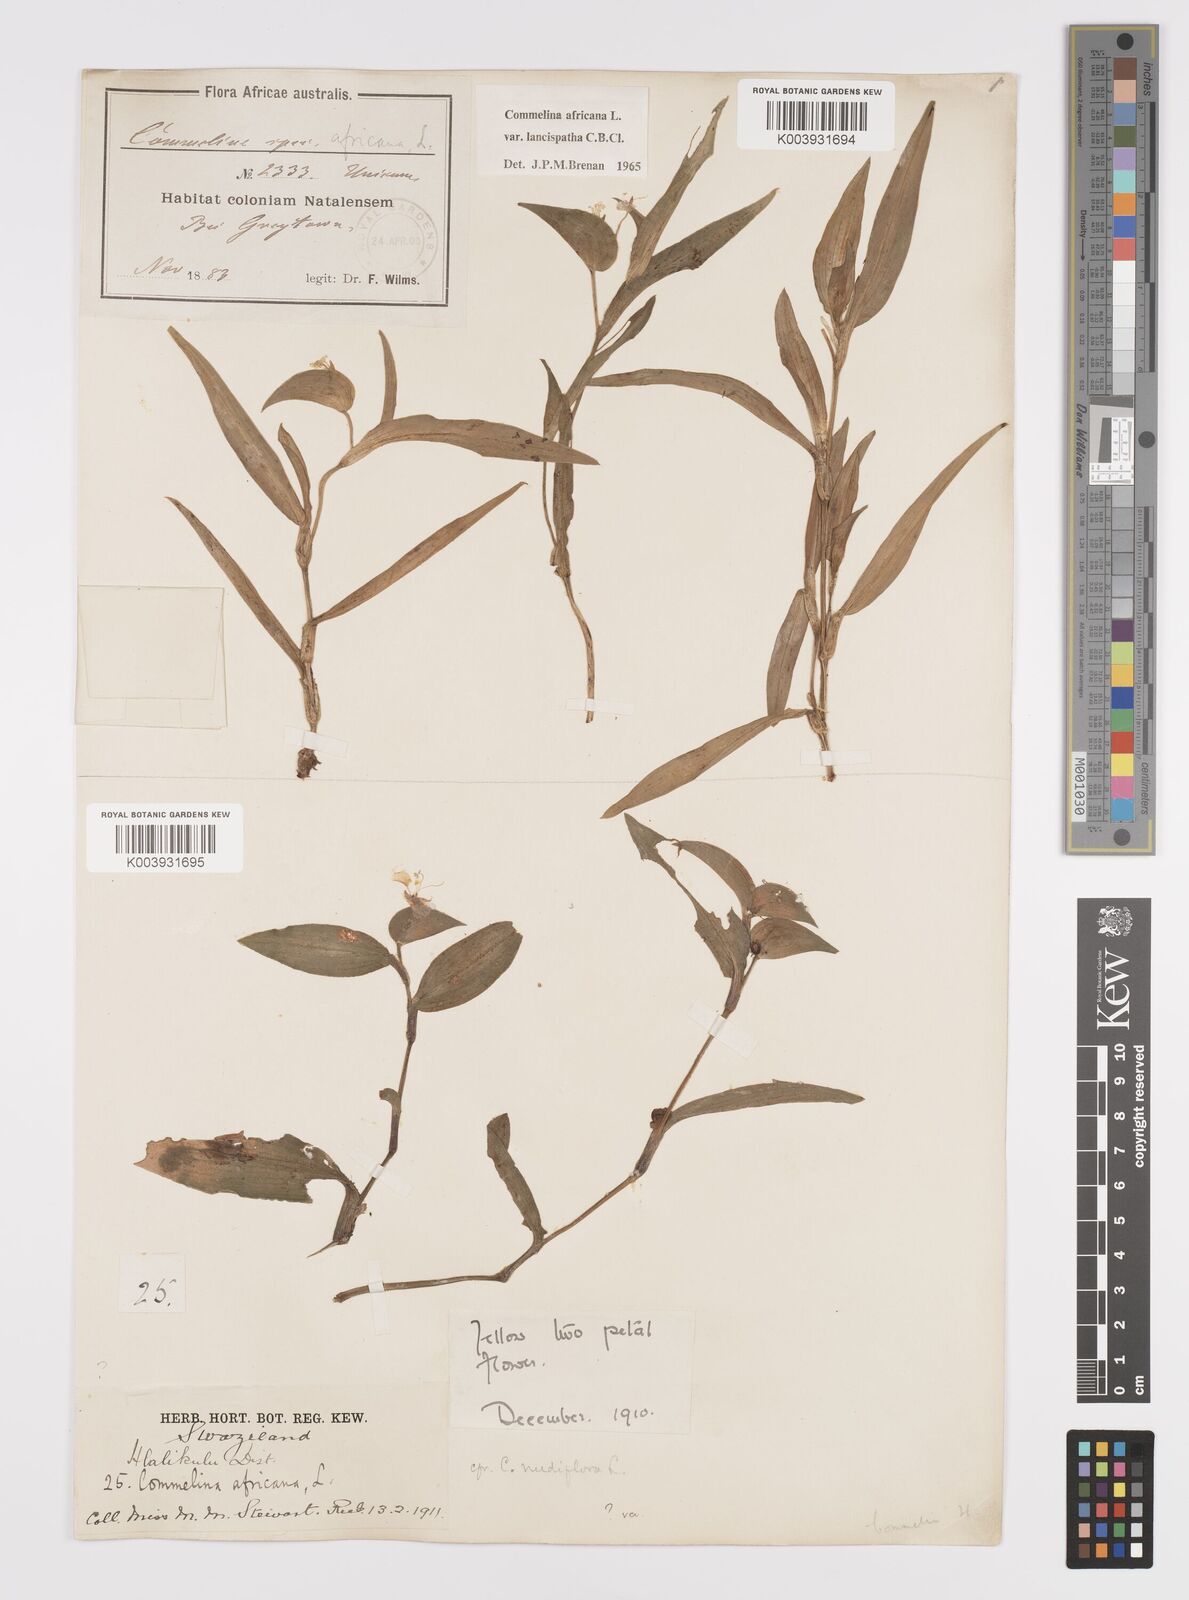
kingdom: Plantae
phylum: Tracheophyta
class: Liliopsida
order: Commelinales
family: Commelinaceae
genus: Commelina
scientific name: Commelina africana
